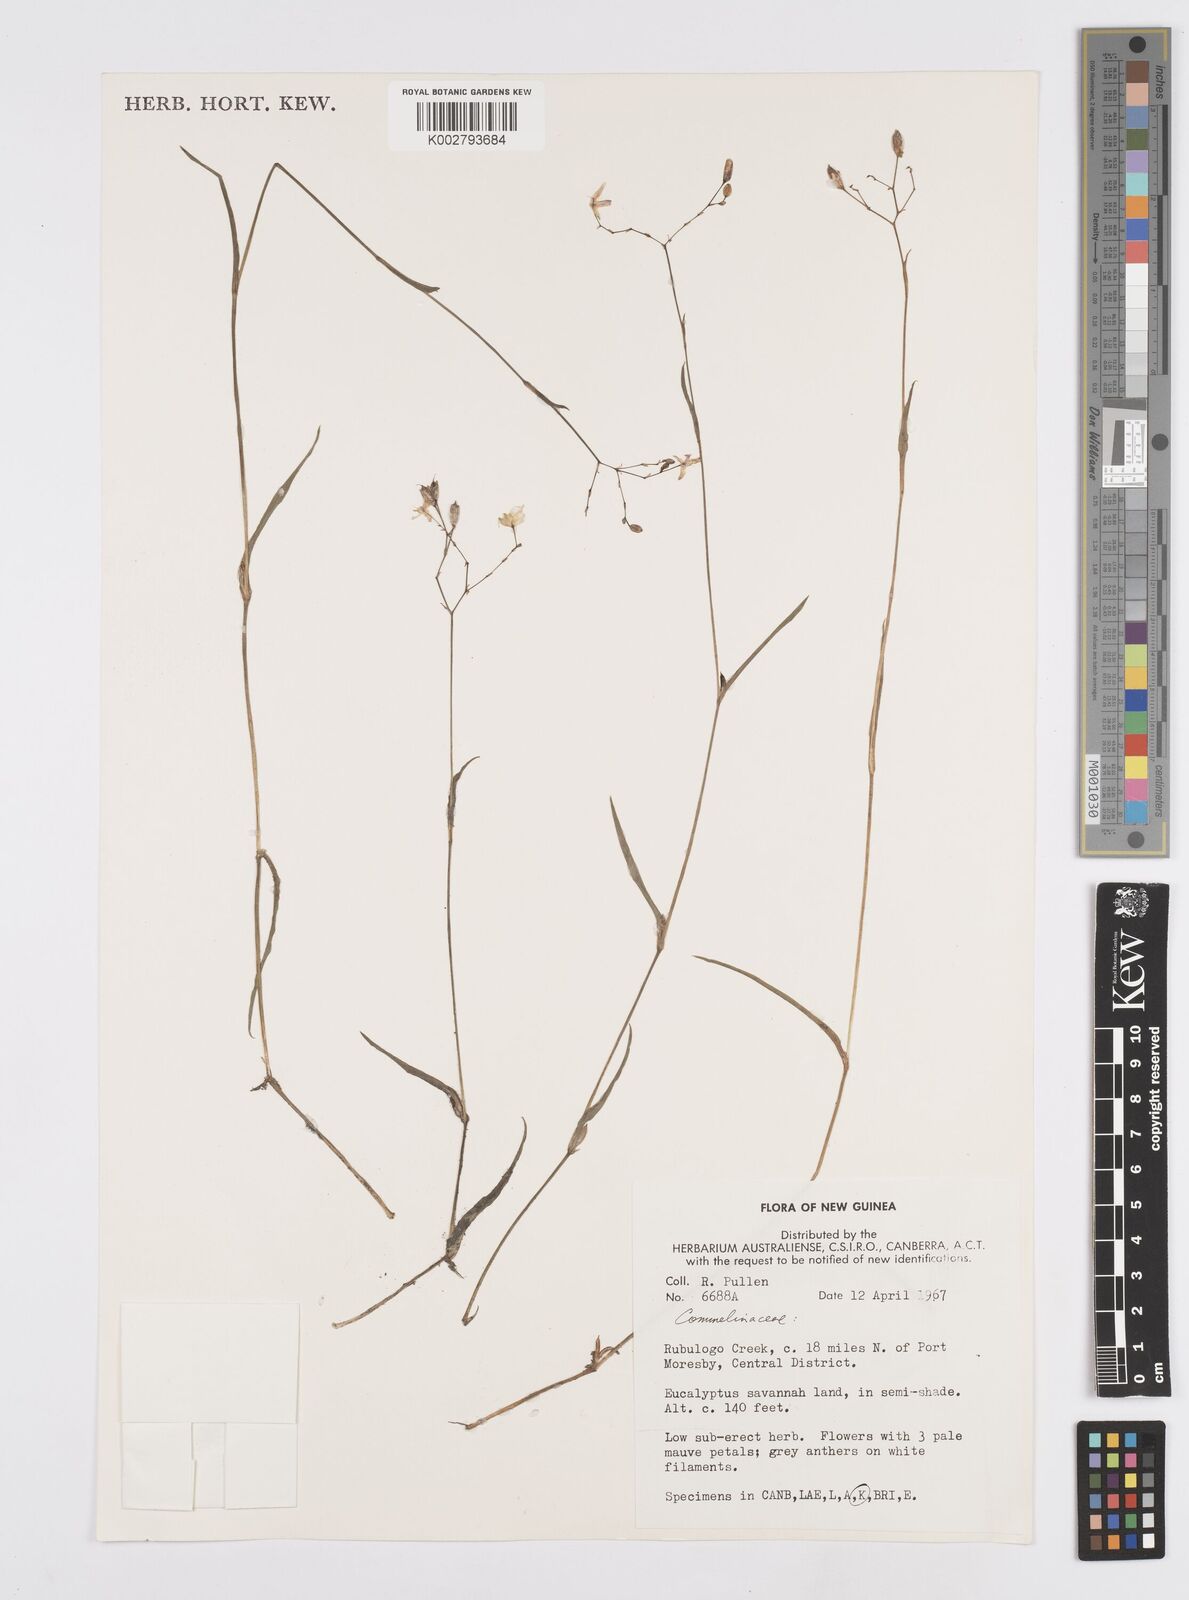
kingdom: Plantae
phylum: Tracheophyta
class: Liliopsida
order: Commelinales
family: Commelinaceae
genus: Murdannia
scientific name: Murdannia
